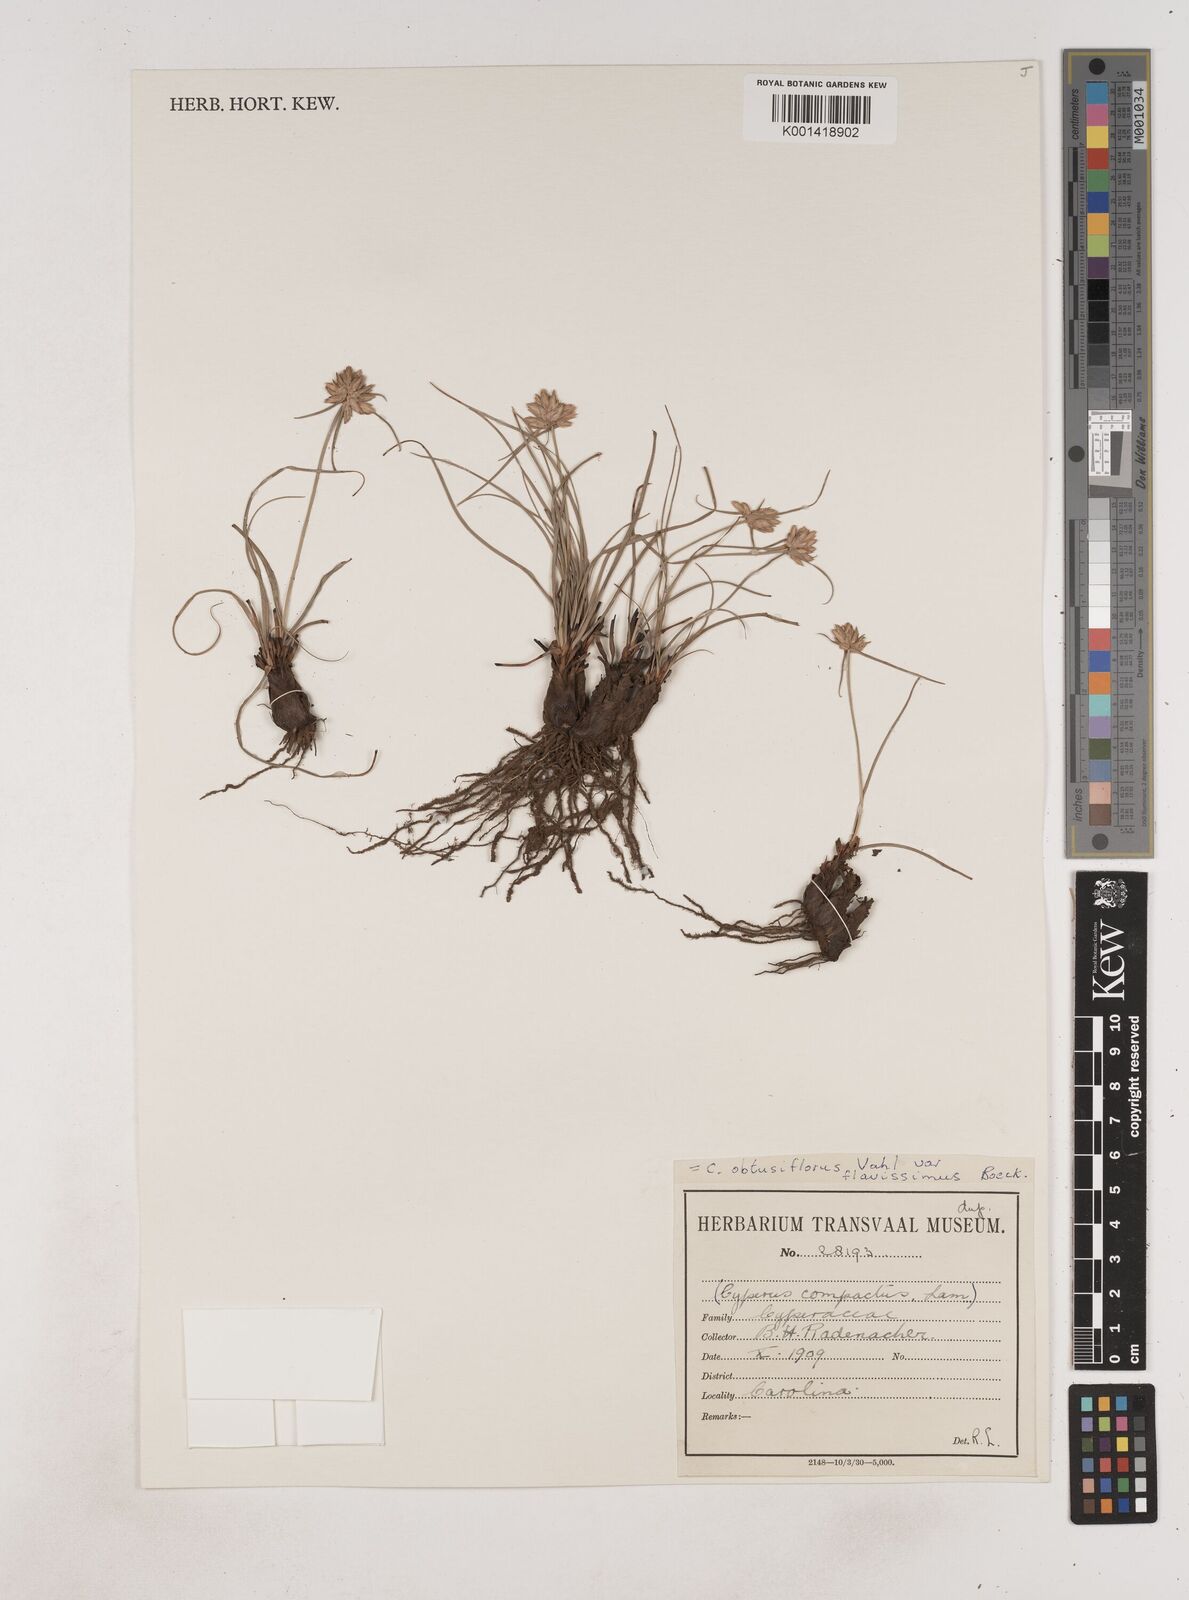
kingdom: Plantae
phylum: Tracheophyta
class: Liliopsida
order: Poales
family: Cyperaceae
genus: Cyperus
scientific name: Cyperus sphaerocephalus
